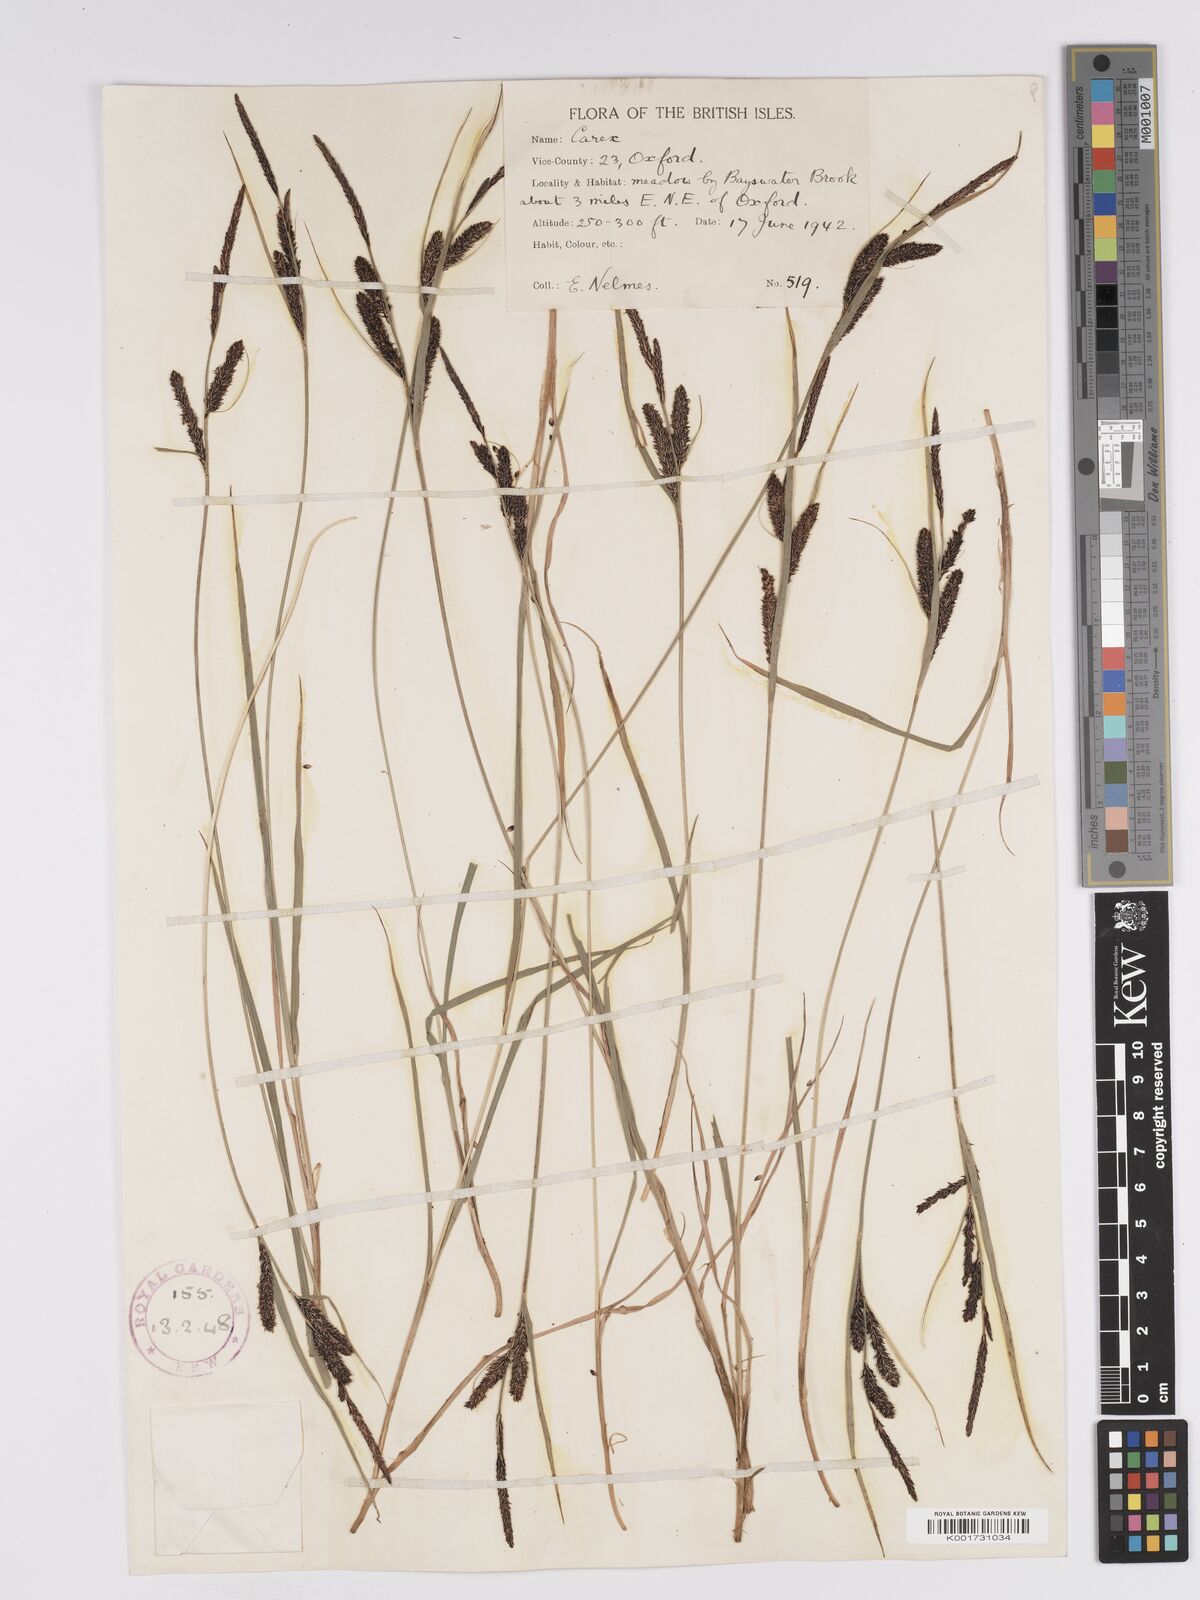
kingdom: Plantae
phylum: Tracheophyta
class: Liliopsida
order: Poales
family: Cyperaceae
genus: Carex
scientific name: Carex nigra
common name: Common sedge
